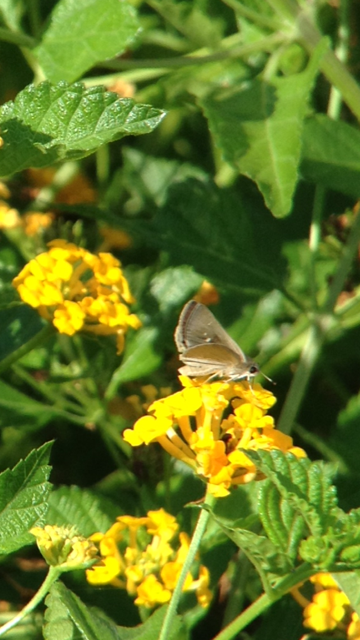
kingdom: Animalia
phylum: Arthropoda
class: Insecta
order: Lepidoptera
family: Hesperiidae
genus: Lerodea
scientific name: Lerodea eufala
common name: Eufala Skipper
